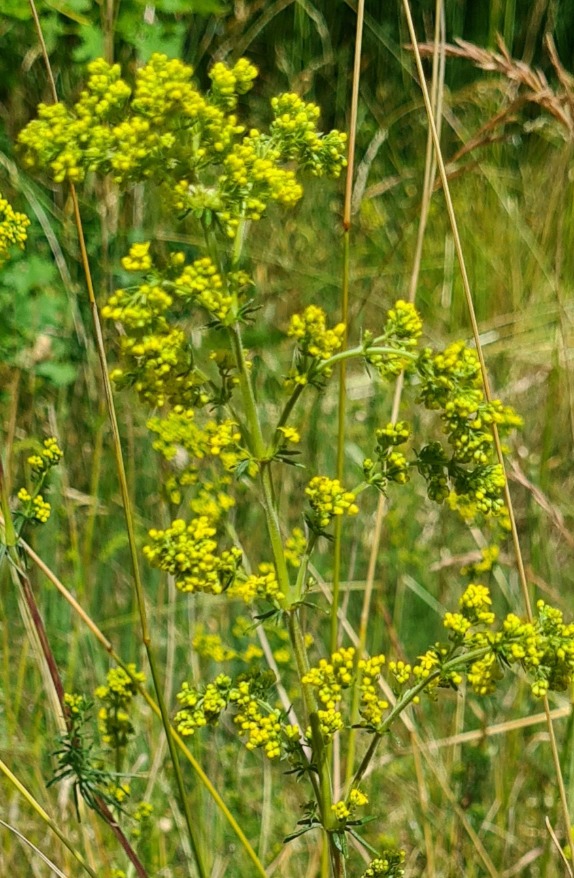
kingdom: Plantae
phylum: Tracheophyta
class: Magnoliopsida
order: Gentianales
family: Rubiaceae
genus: Galium
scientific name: Galium verum
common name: Gul snerre
